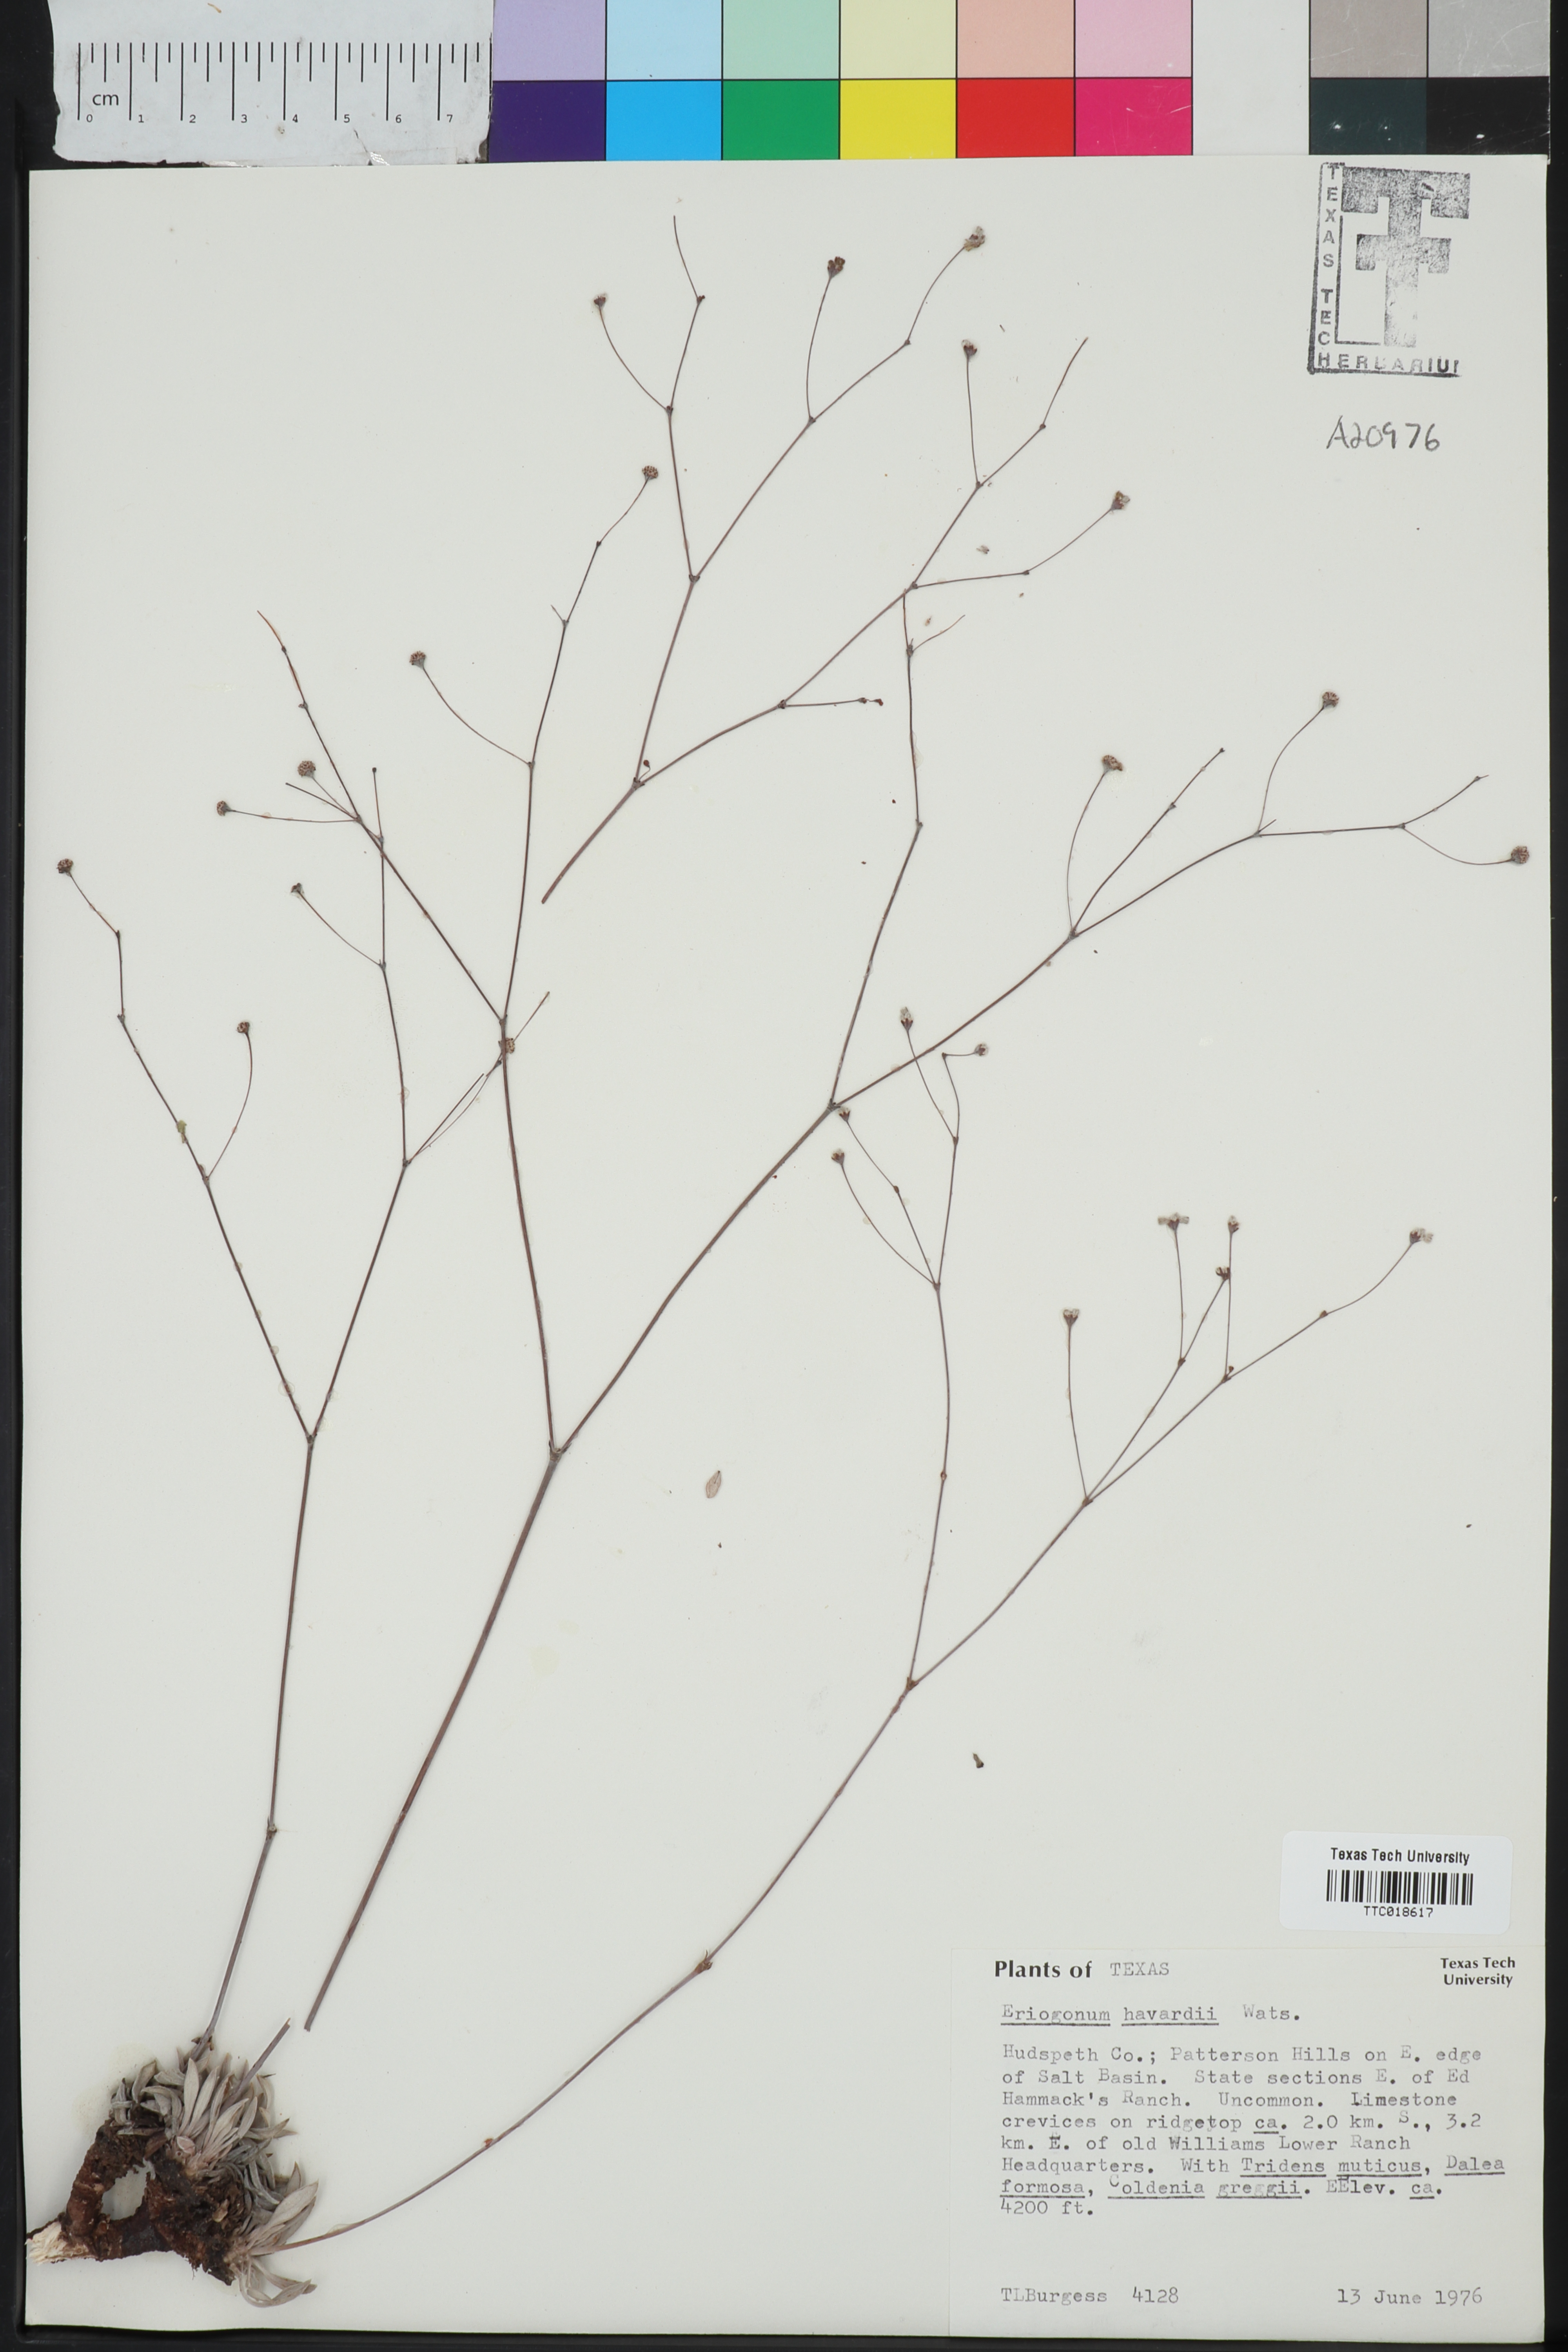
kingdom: Plantae
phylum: Tracheophyta
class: Magnoliopsida
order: Caryophyllales
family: Polygonaceae
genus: Eriogonum
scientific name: Eriogonum havardii
